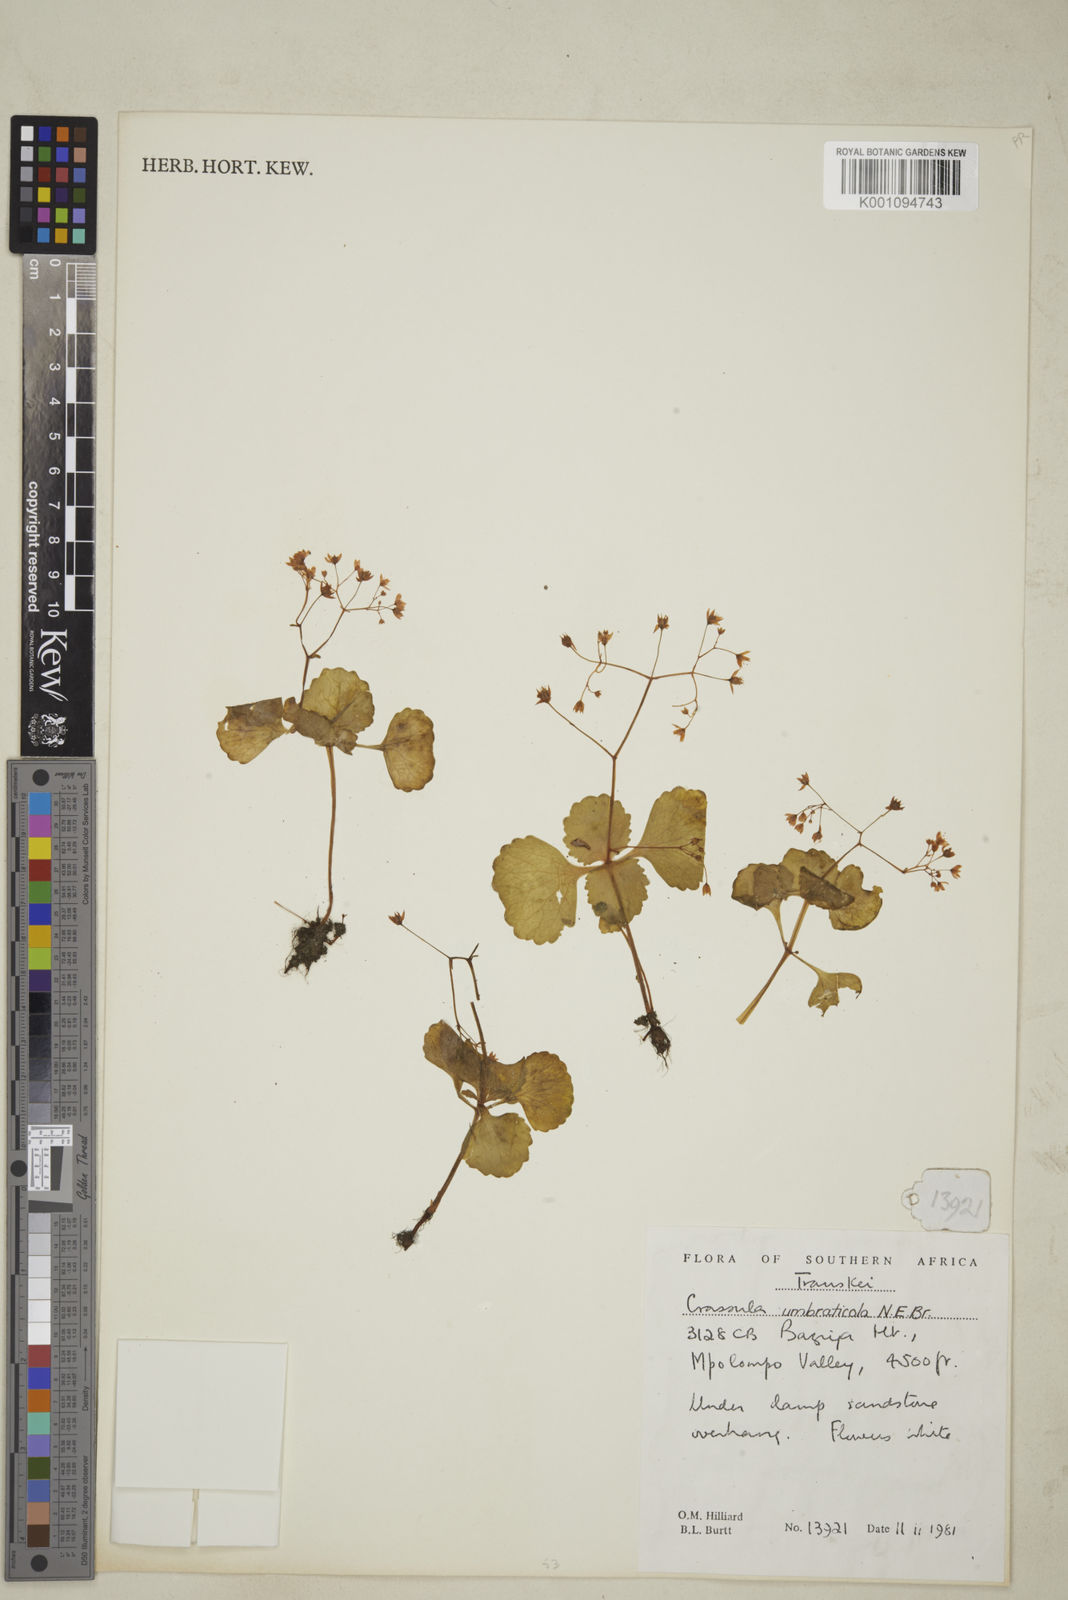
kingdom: Plantae
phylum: Tracheophyta
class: Magnoliopsida
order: Saxifragales
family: Crassulaceae
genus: Crassula
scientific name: Crassula umbraticola
